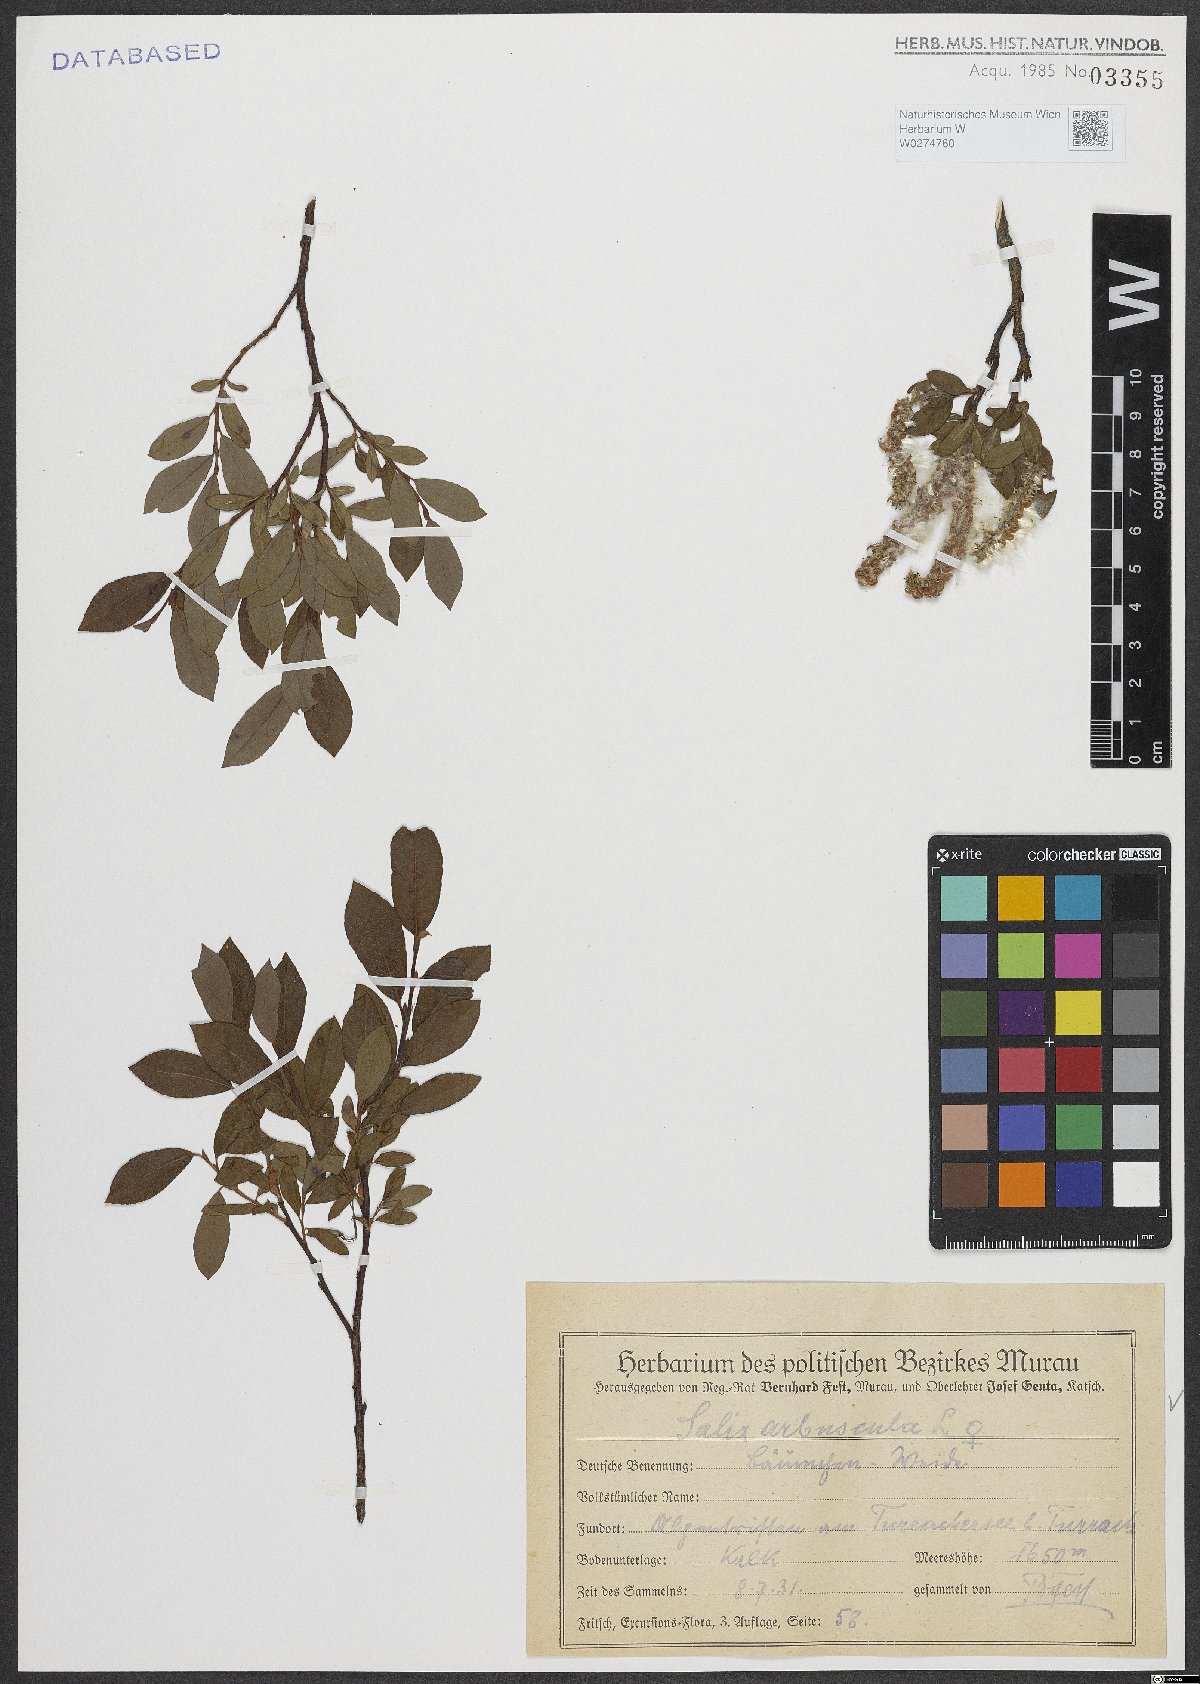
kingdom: Plantae
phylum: Tracheophyta
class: Magnoliopsida
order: Malpighiales
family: Salicaceae
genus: Salix
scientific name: Salix arbuscula
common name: Mountain willow
